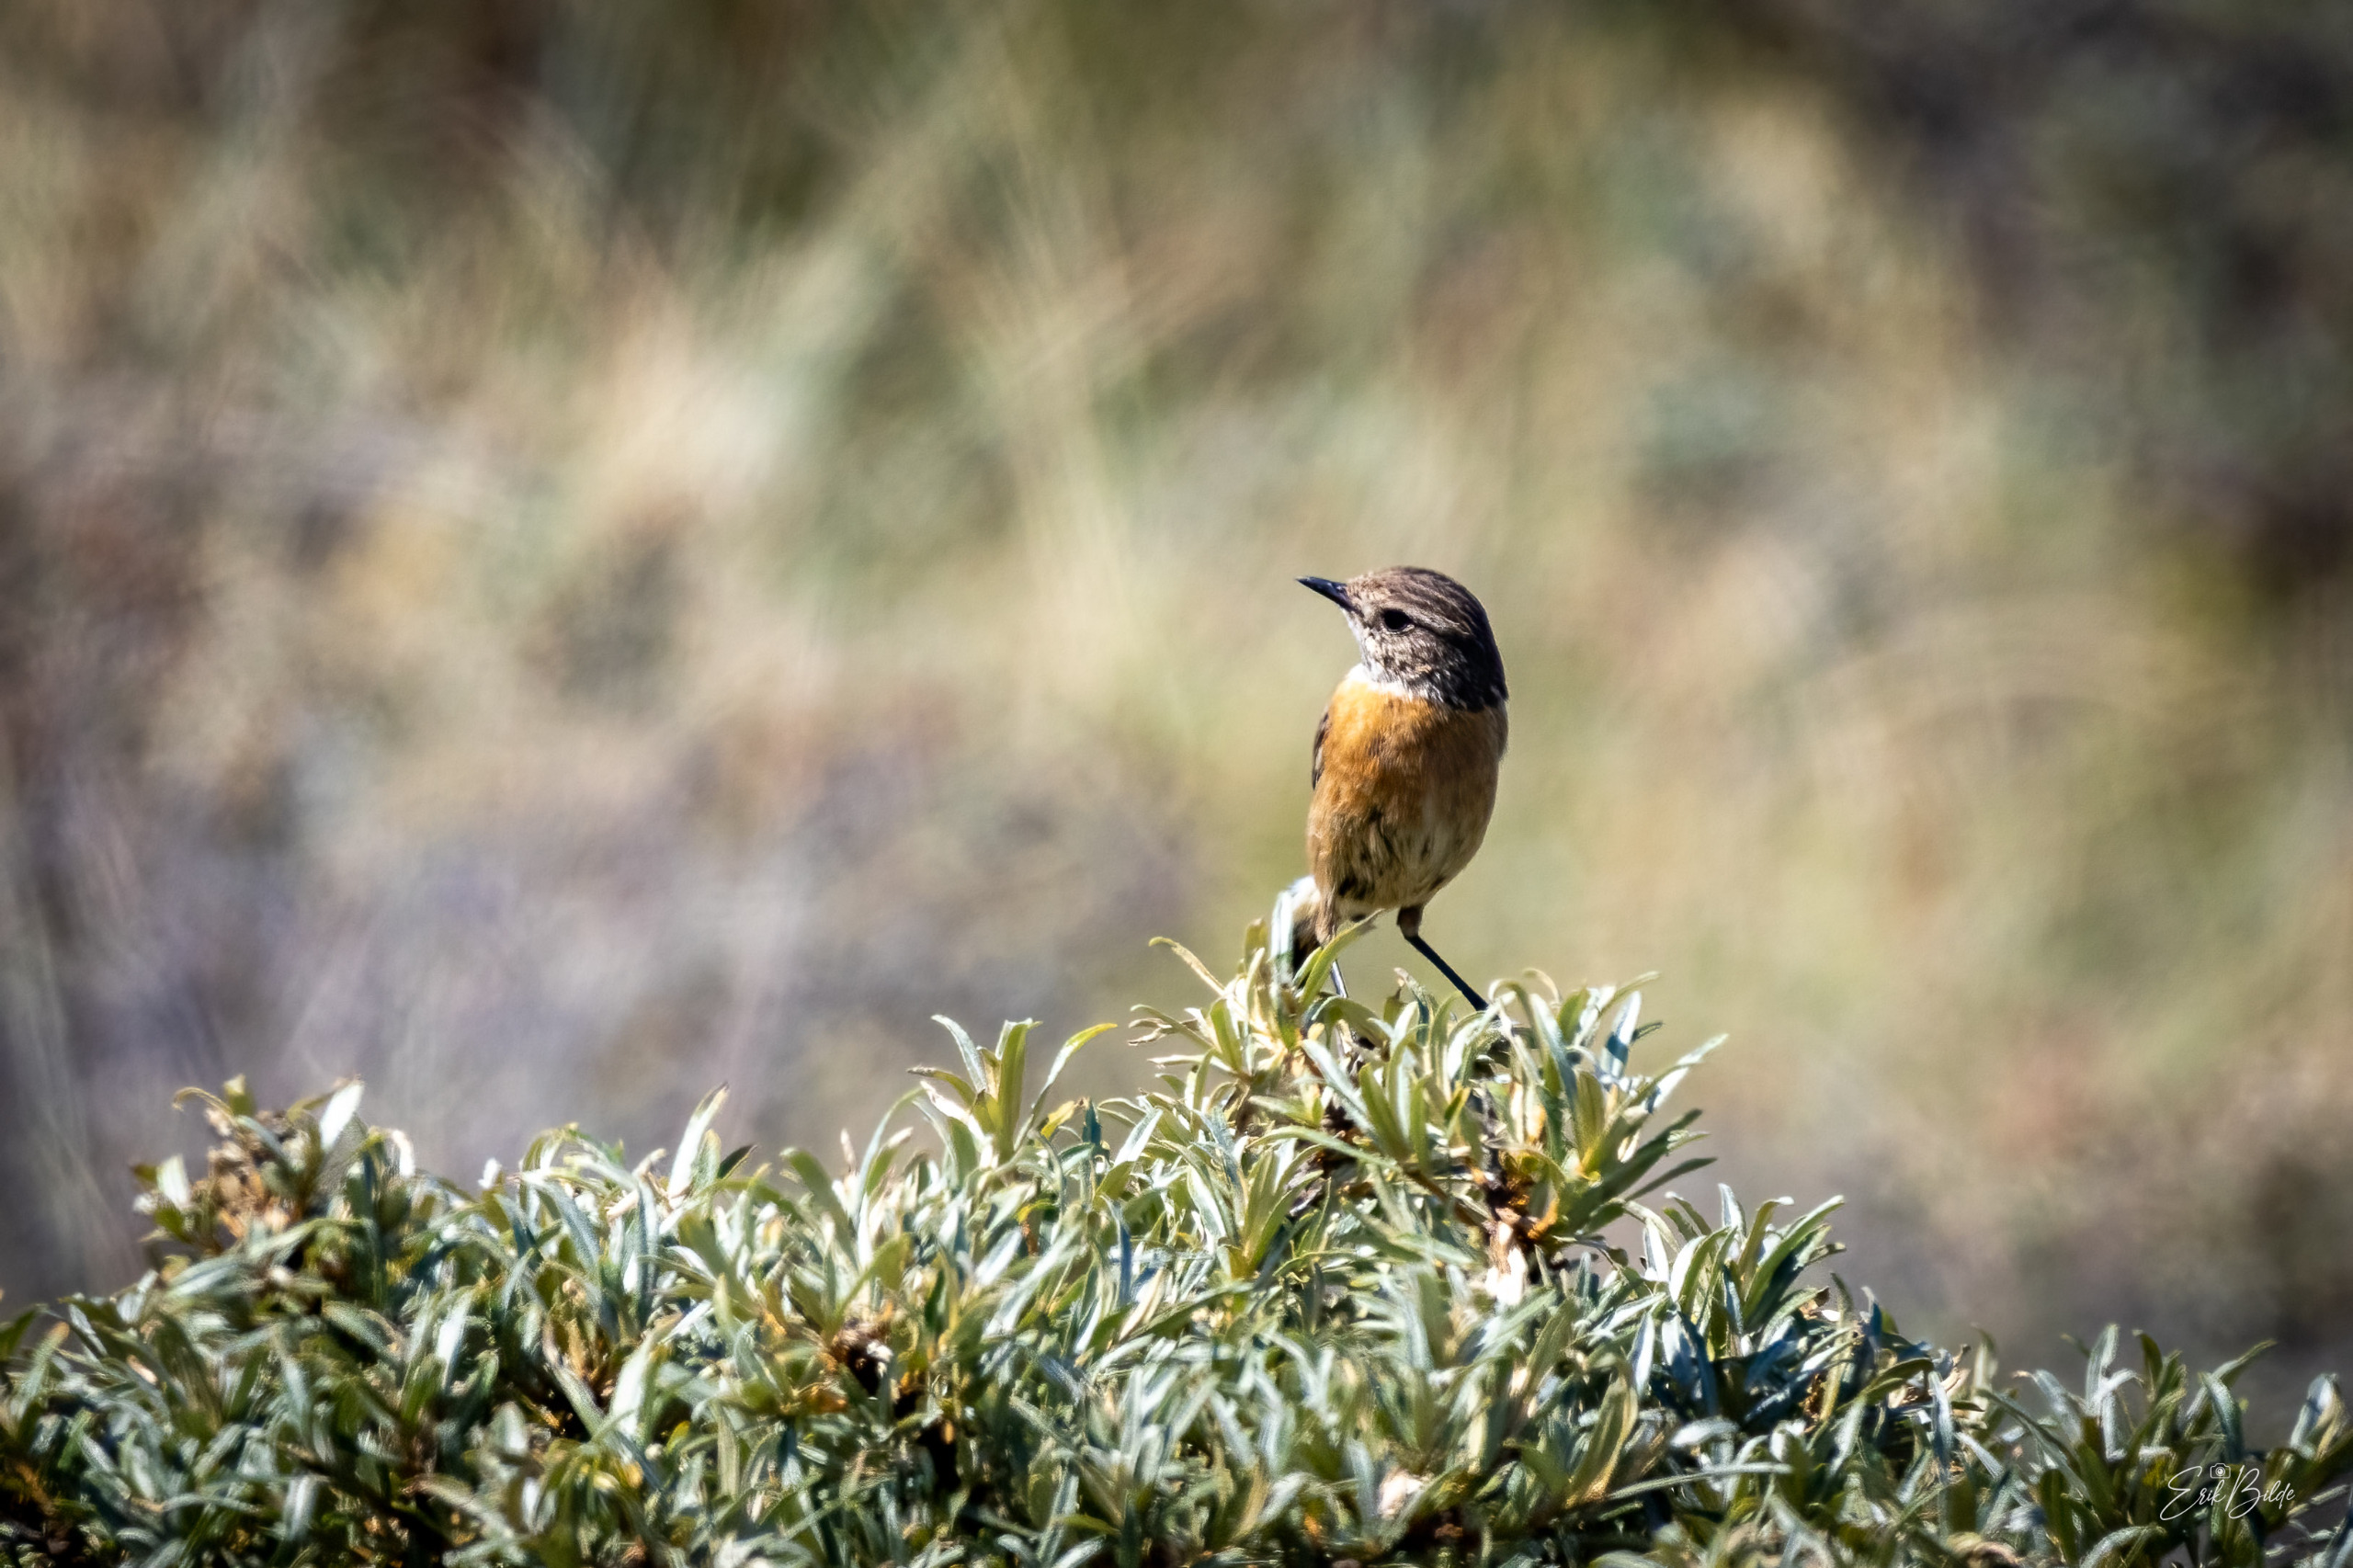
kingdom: Animalia
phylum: Chordata
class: Aves
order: Passeriformes
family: Muscicapidae
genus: Saxicola
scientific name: Saxicola rubicola
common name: Sortstrubet bynkefugl
